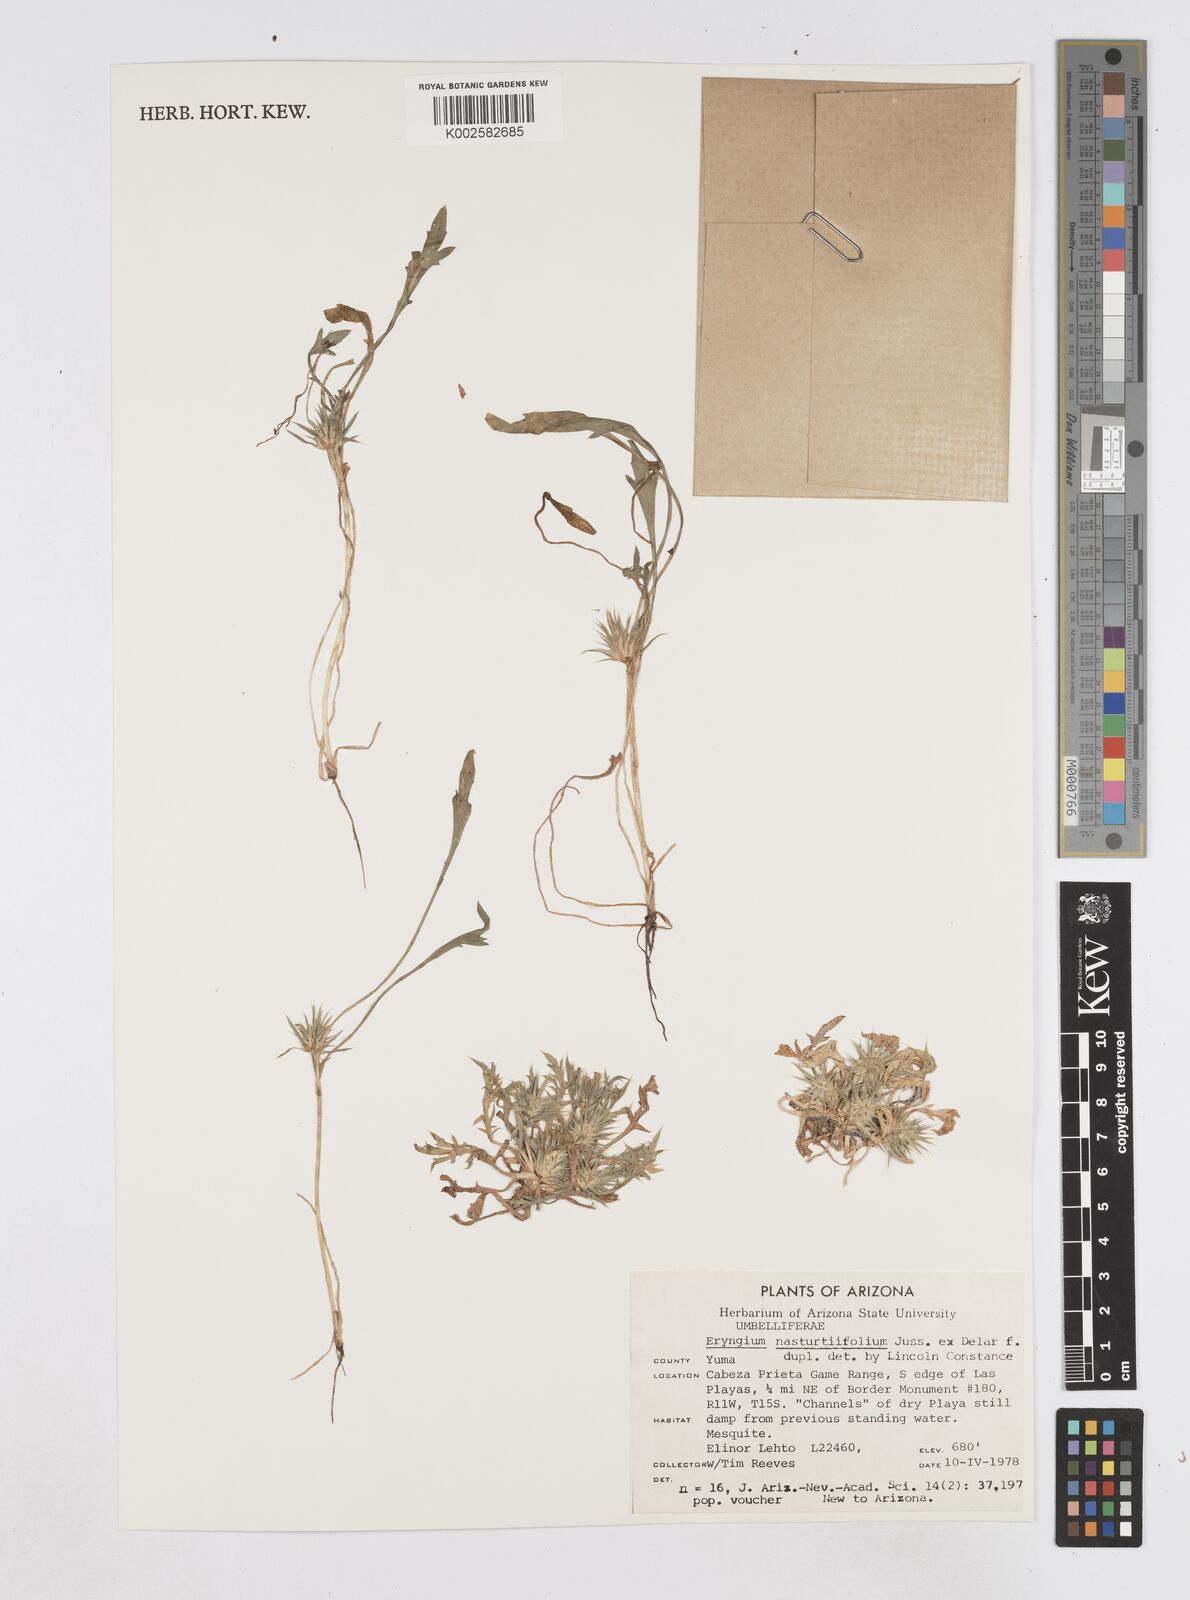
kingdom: Plantae
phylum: Tracheophyta
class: Magnoliopsida
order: Apiales
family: Apiaceae
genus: Eryngium
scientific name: Eryngium nasturtiifolium
